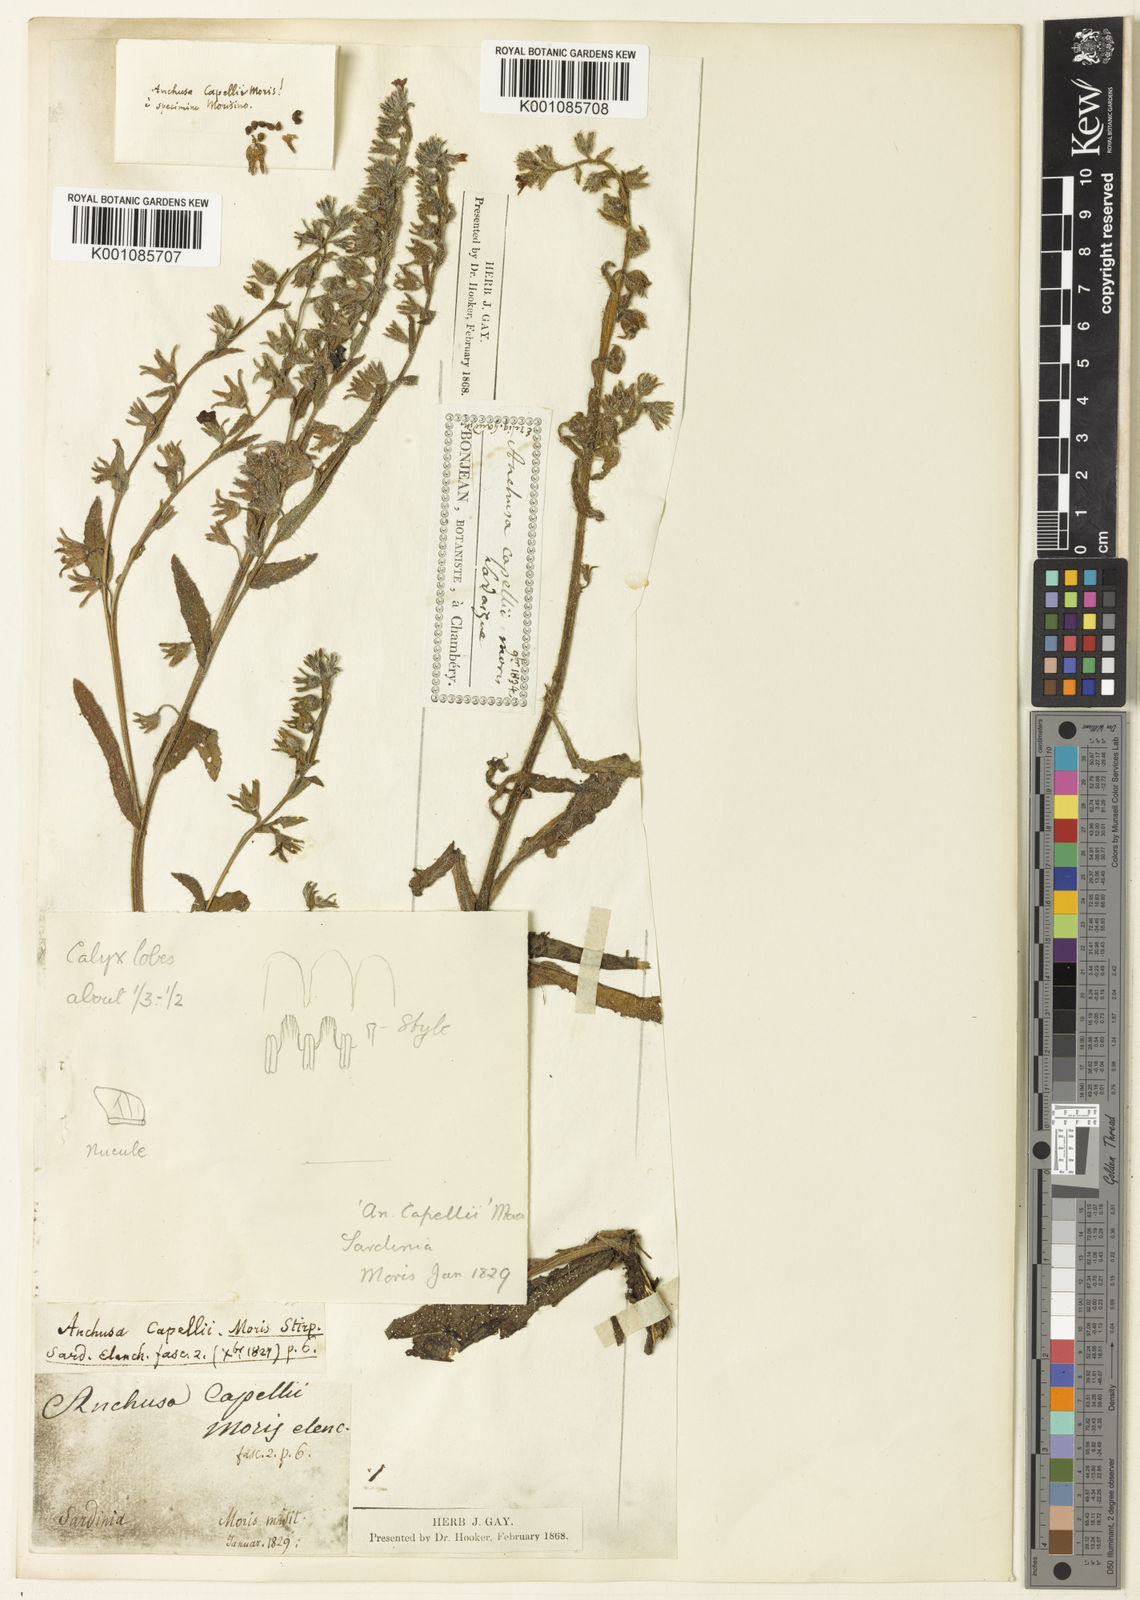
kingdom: Plantae
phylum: Tracheophyta
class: Magnoliopsida
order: Boraginales
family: Boraginaceae
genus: Anchusa
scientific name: Anchusa hybrida
